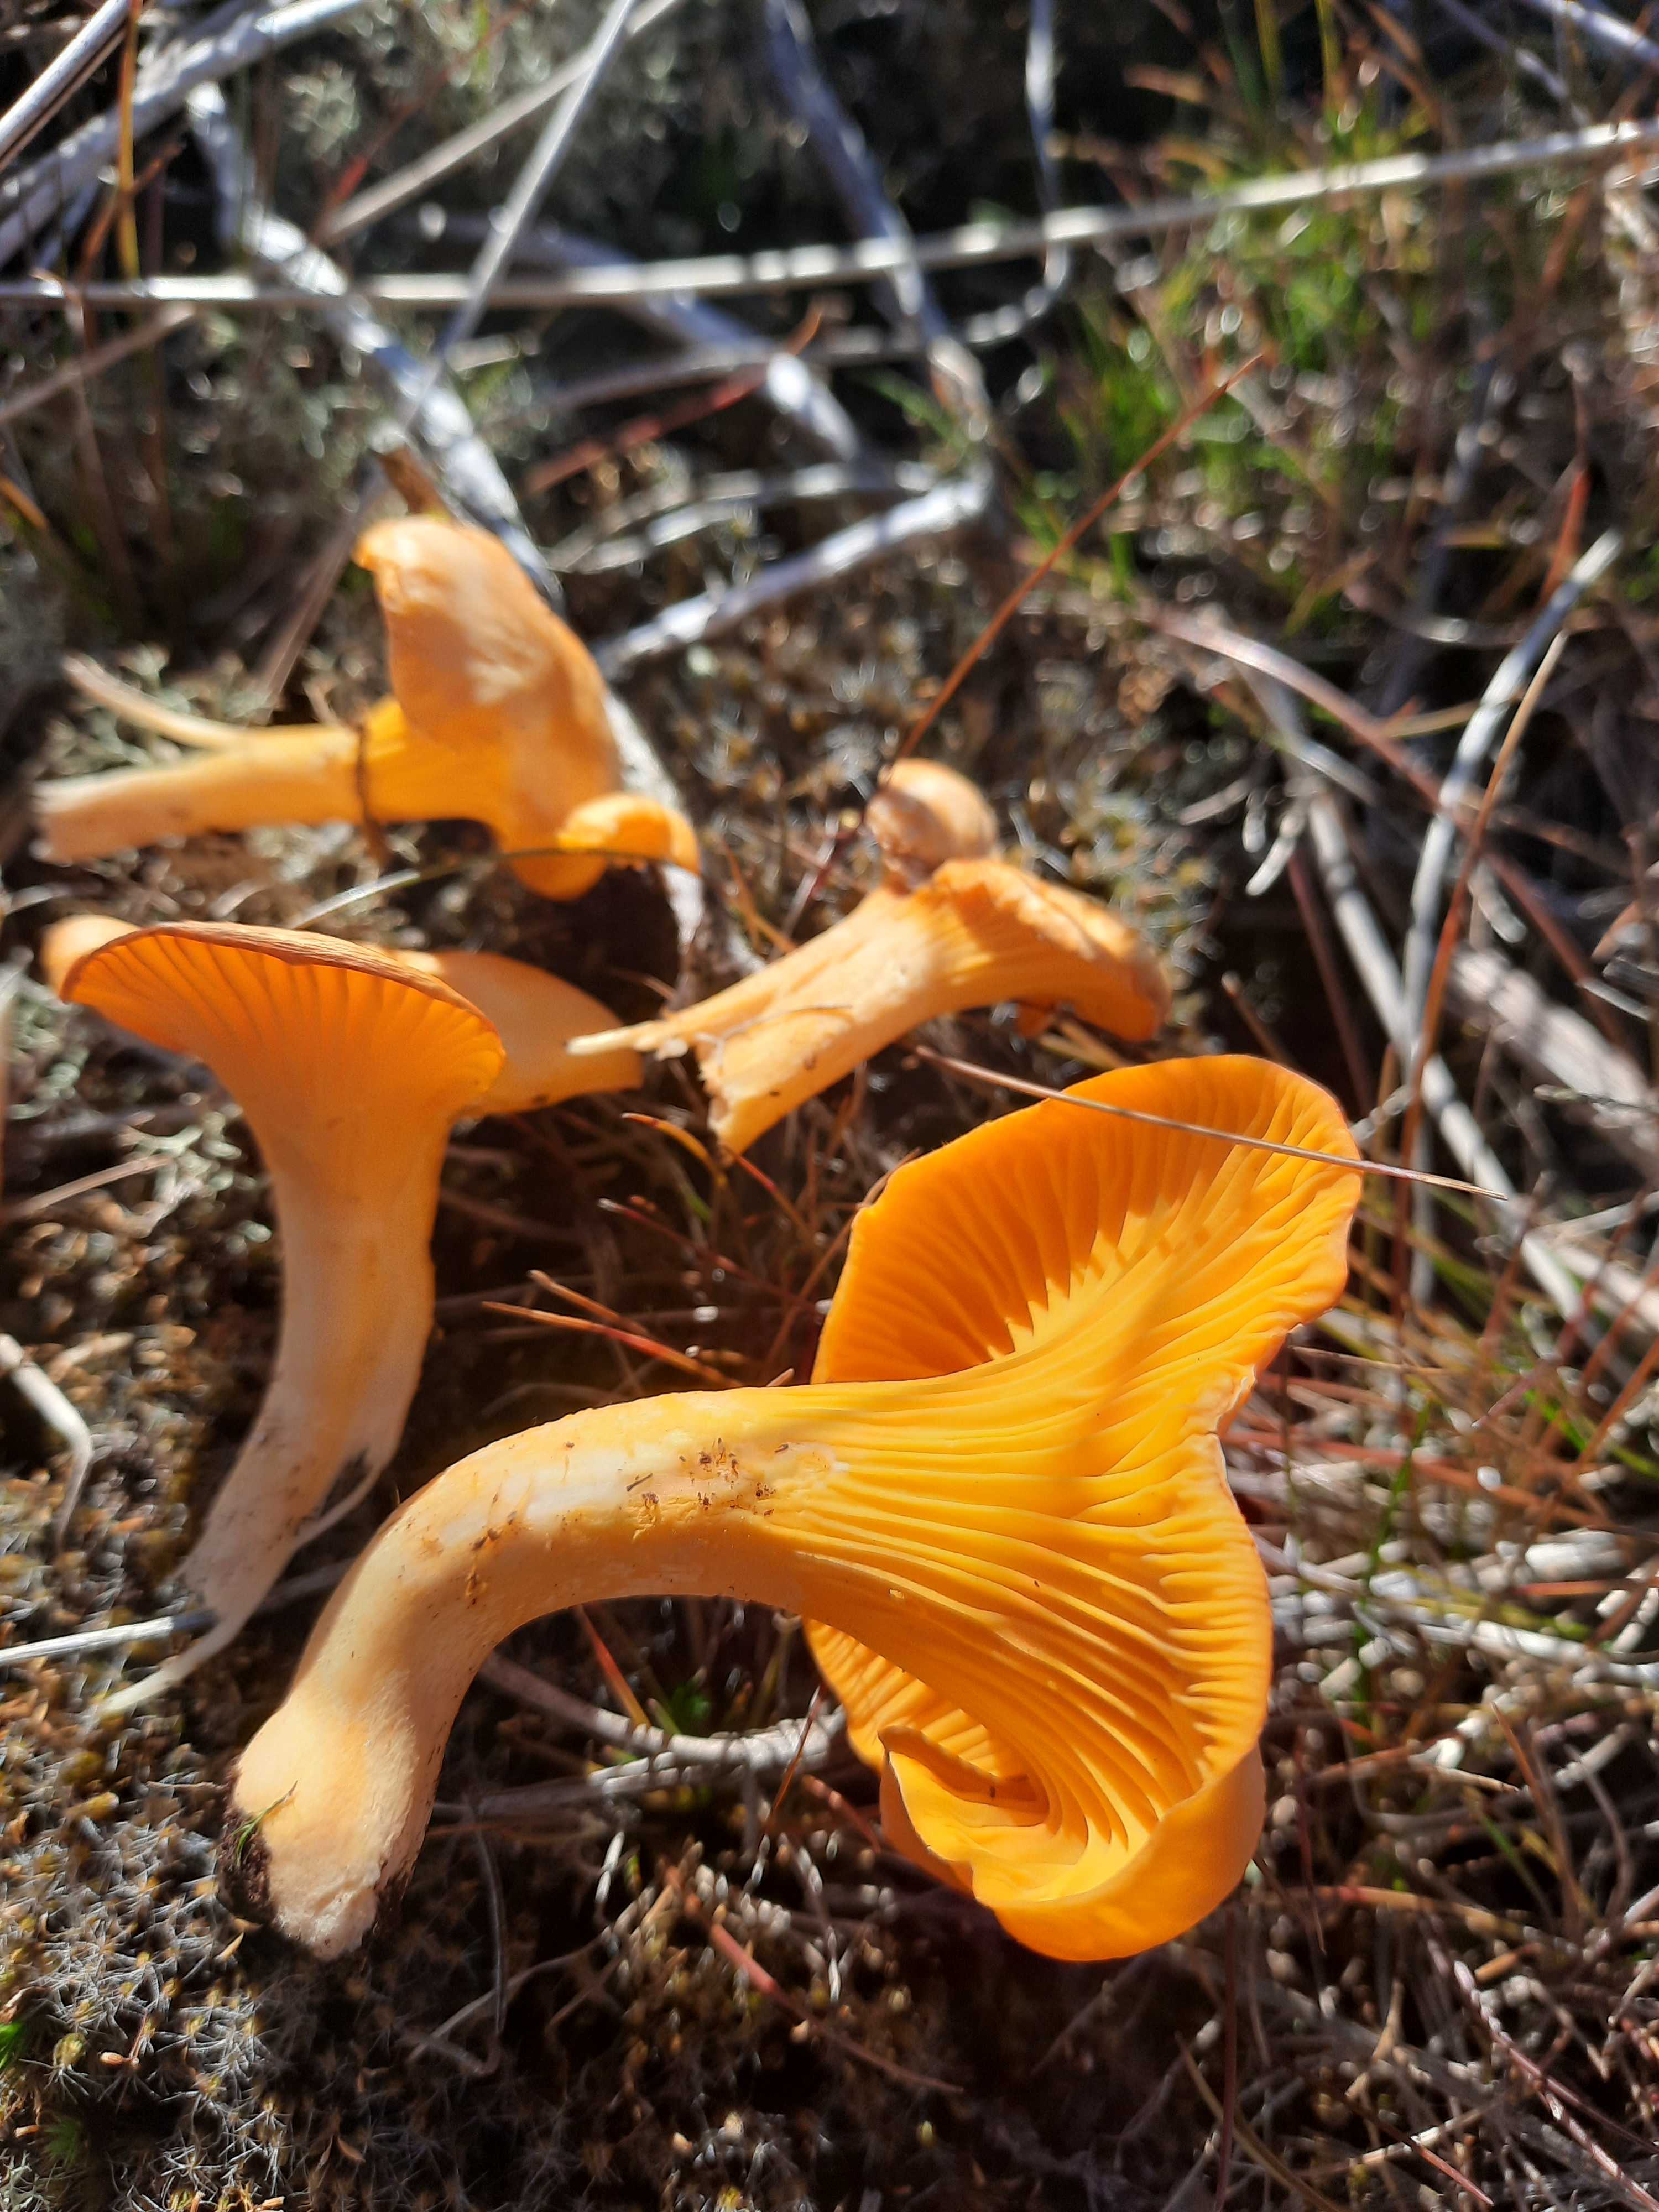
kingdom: Fungi
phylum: Basidiomycota
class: Agaricomycetes
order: Cantharellales
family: Hydnaceae
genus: Cantharellus
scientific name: Cantharellus cibarius
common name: almindelig kantarel
